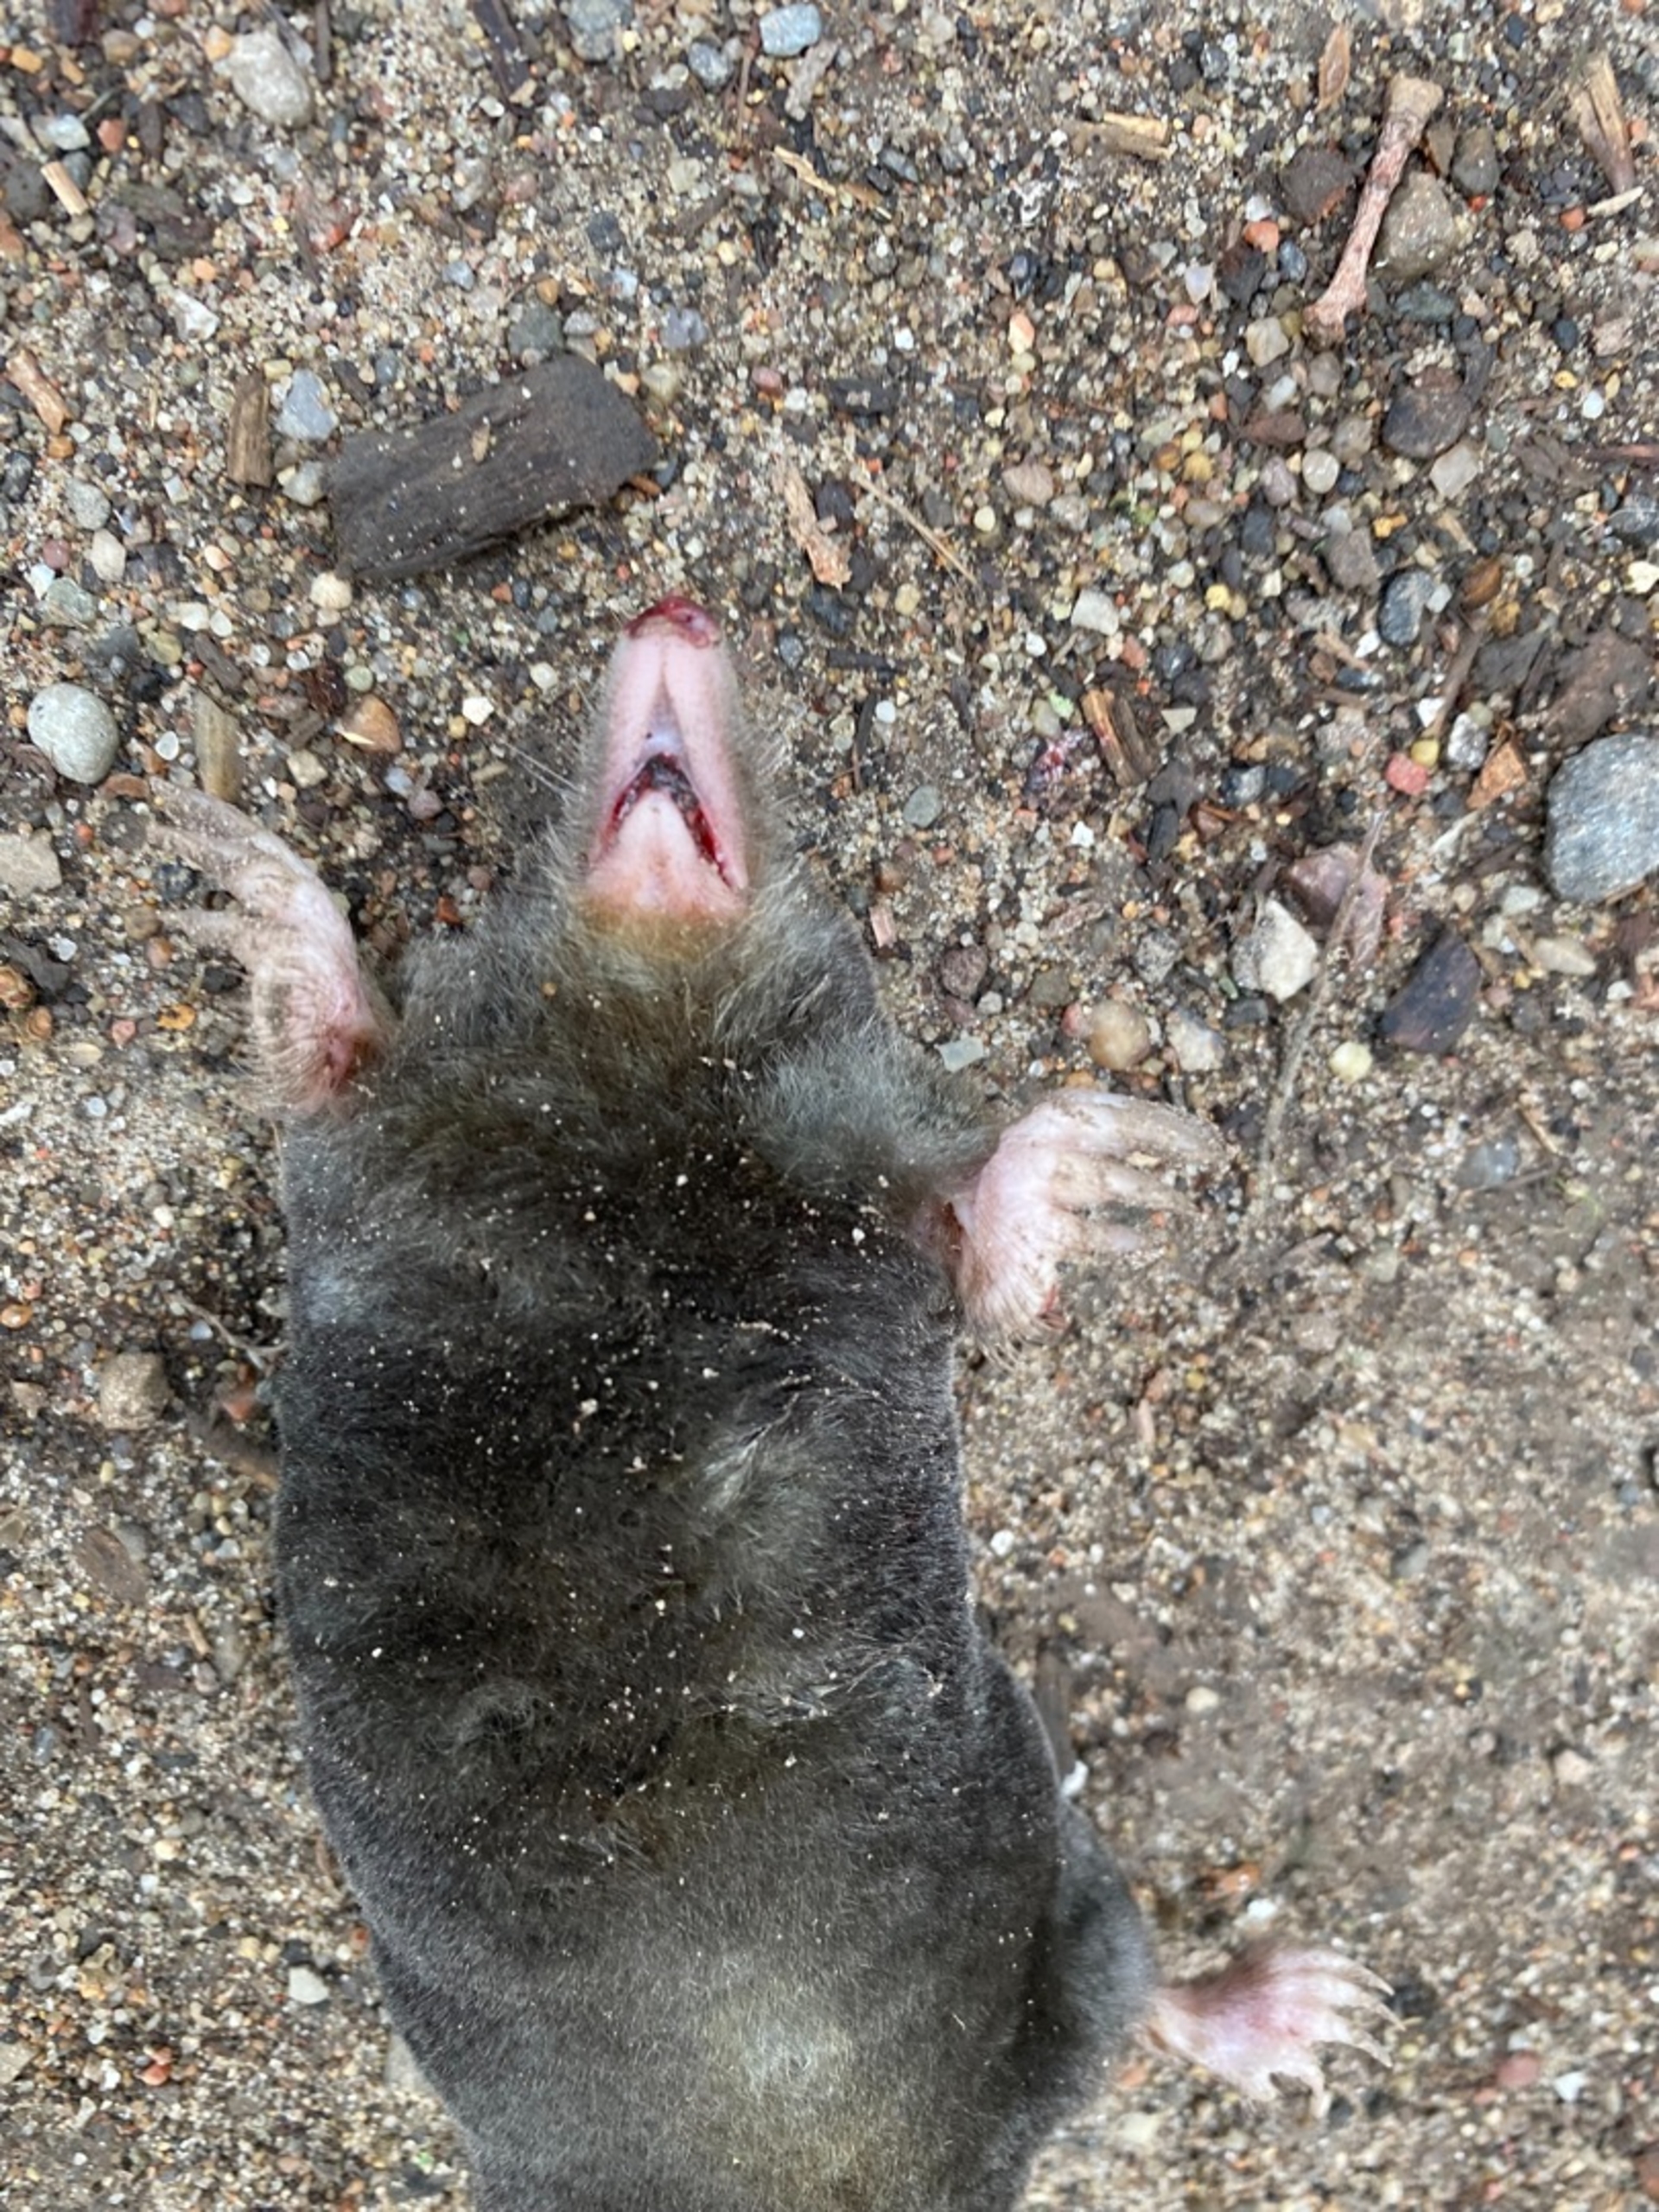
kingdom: Animalia
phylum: Chordata
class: Mammalia
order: Soricomorpha
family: Talpidae
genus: Talpa
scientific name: Talpa europaea
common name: Muldvarp
